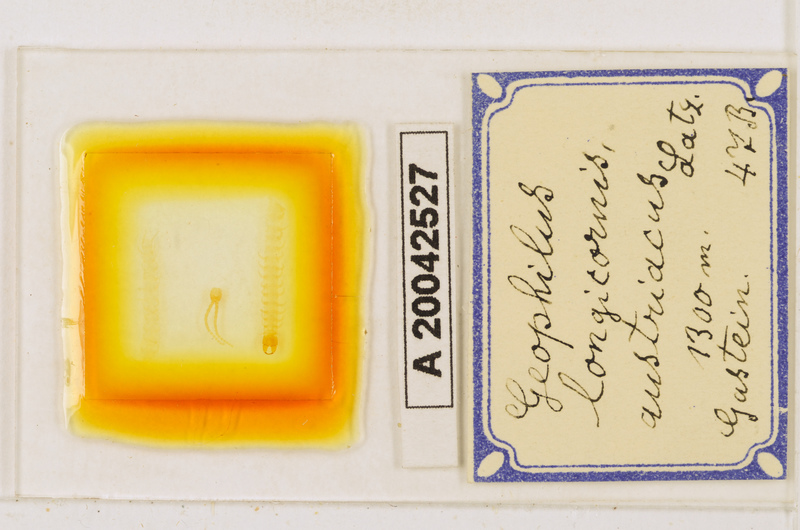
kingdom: Animalia
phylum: Arthropoda
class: Chilopoda
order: Geophilomorpha
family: Geophilidae
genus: Geophilus
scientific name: Geophilus flavus
